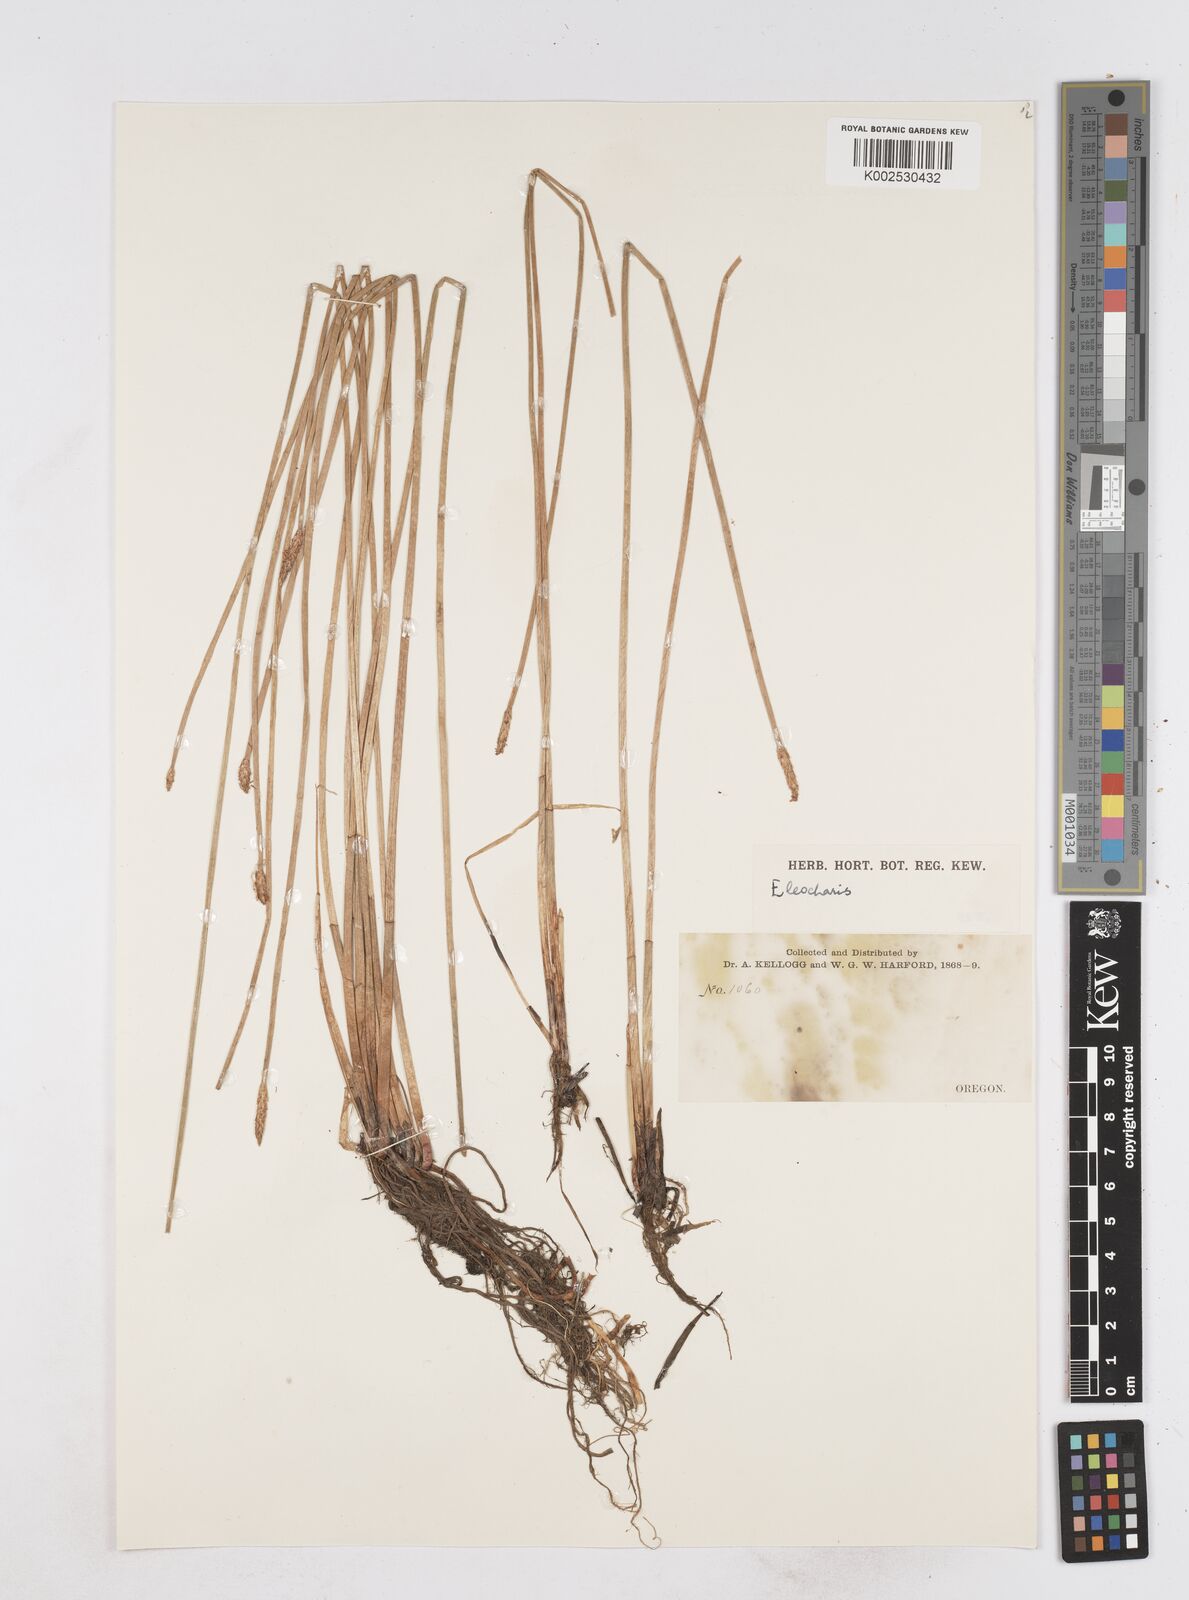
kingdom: Plantae
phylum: Tracheophyta
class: Liliopsida
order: Poales
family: Cyperaceae
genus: Eleocharis
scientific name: Eleocharis
